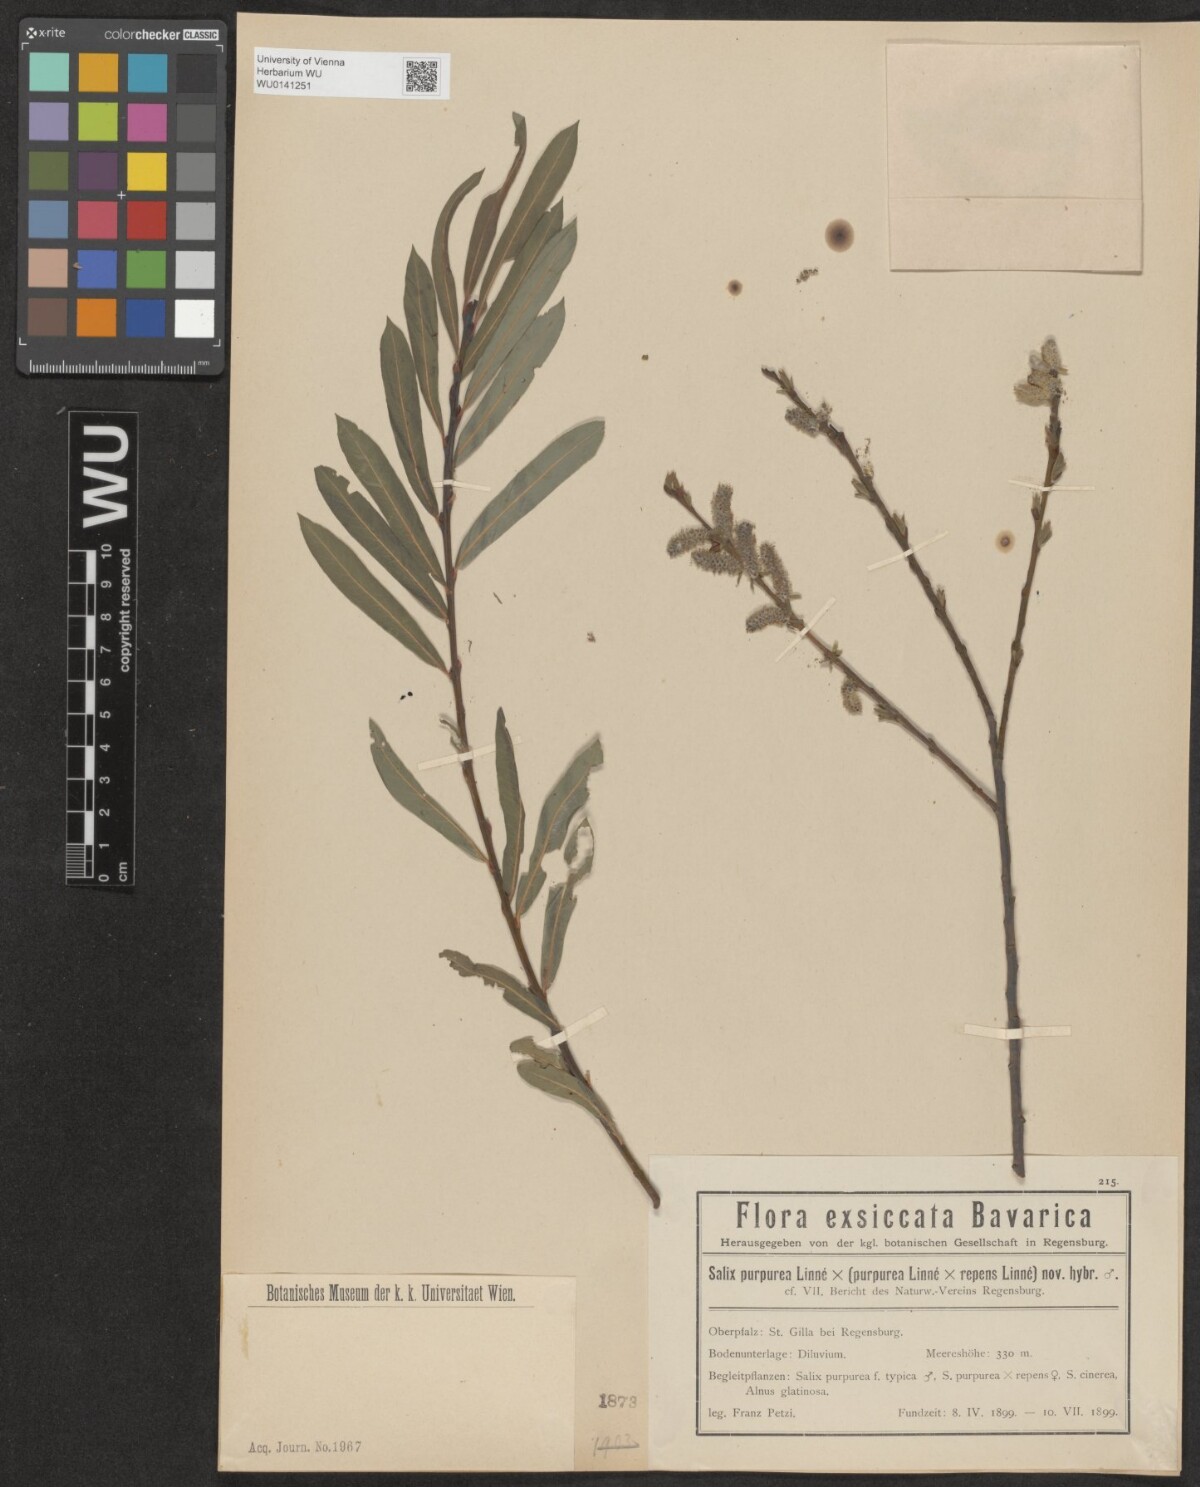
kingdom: Plantae
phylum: Tracheophyta
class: Magnoliopsida
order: Malpighiales
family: Salicaceae
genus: Salix
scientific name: Salix
